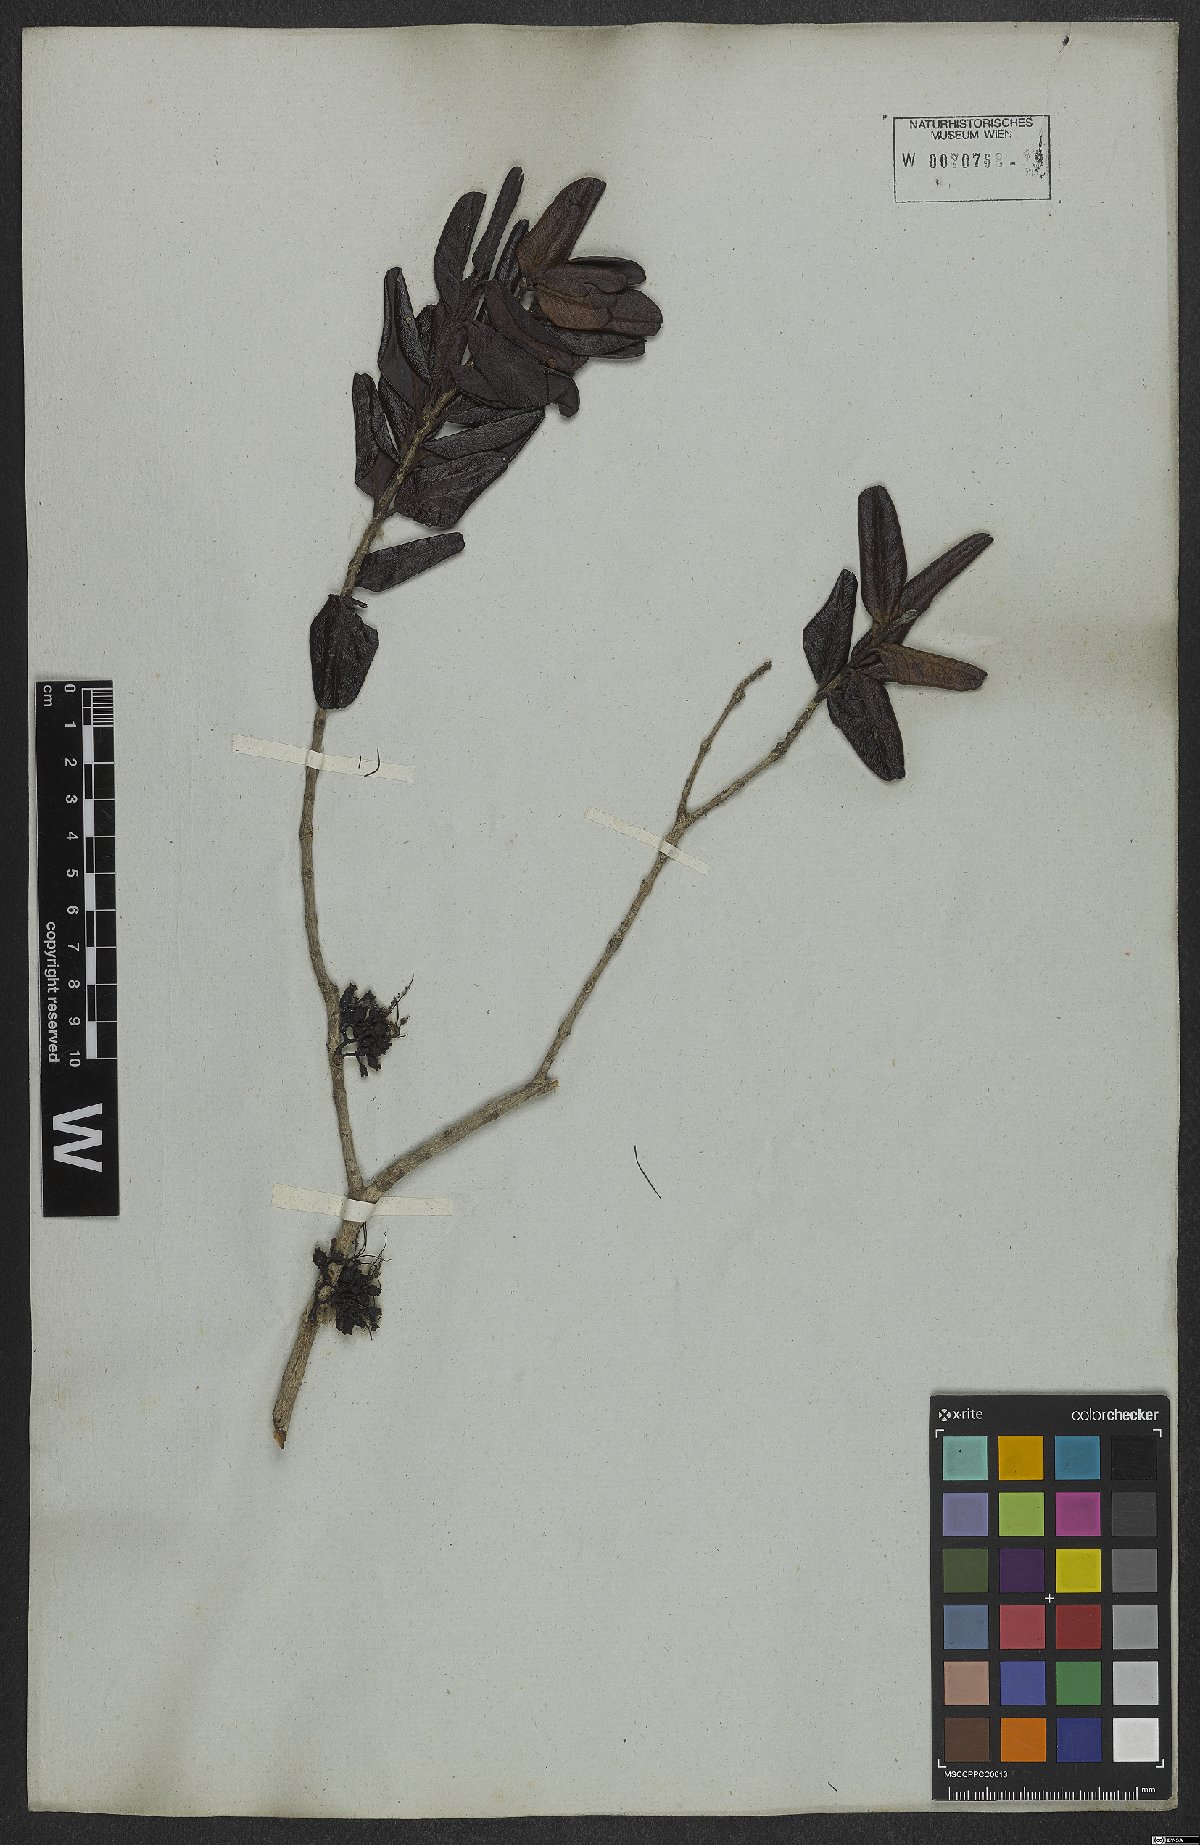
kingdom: Plantae
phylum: Tracheophyta
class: Magnoliopsida
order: Myrtales
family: Myrtaceae
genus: Myrrhinium
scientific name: Myrrhinium atropurpureum
